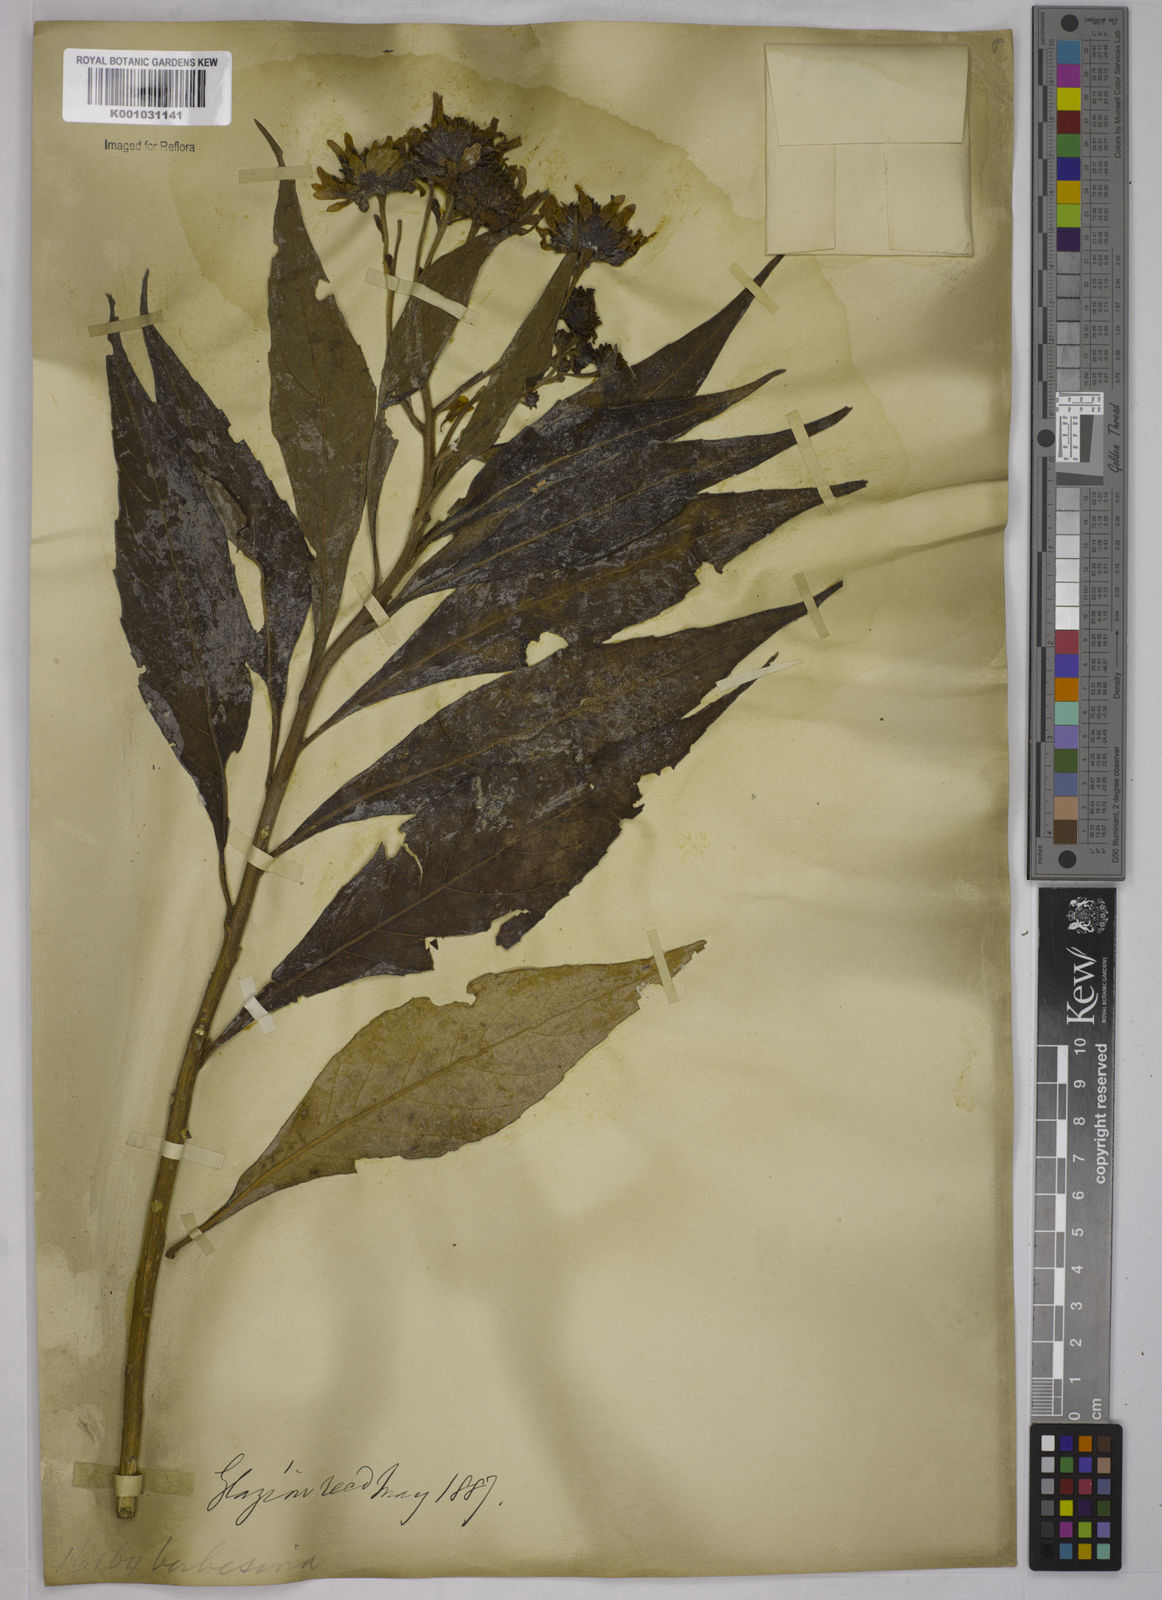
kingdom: Plantae
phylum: Tracheophyta
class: Magnoliopsida
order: Asterales
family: Asteraceae
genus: Verbesina
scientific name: Verbesina glabrata
